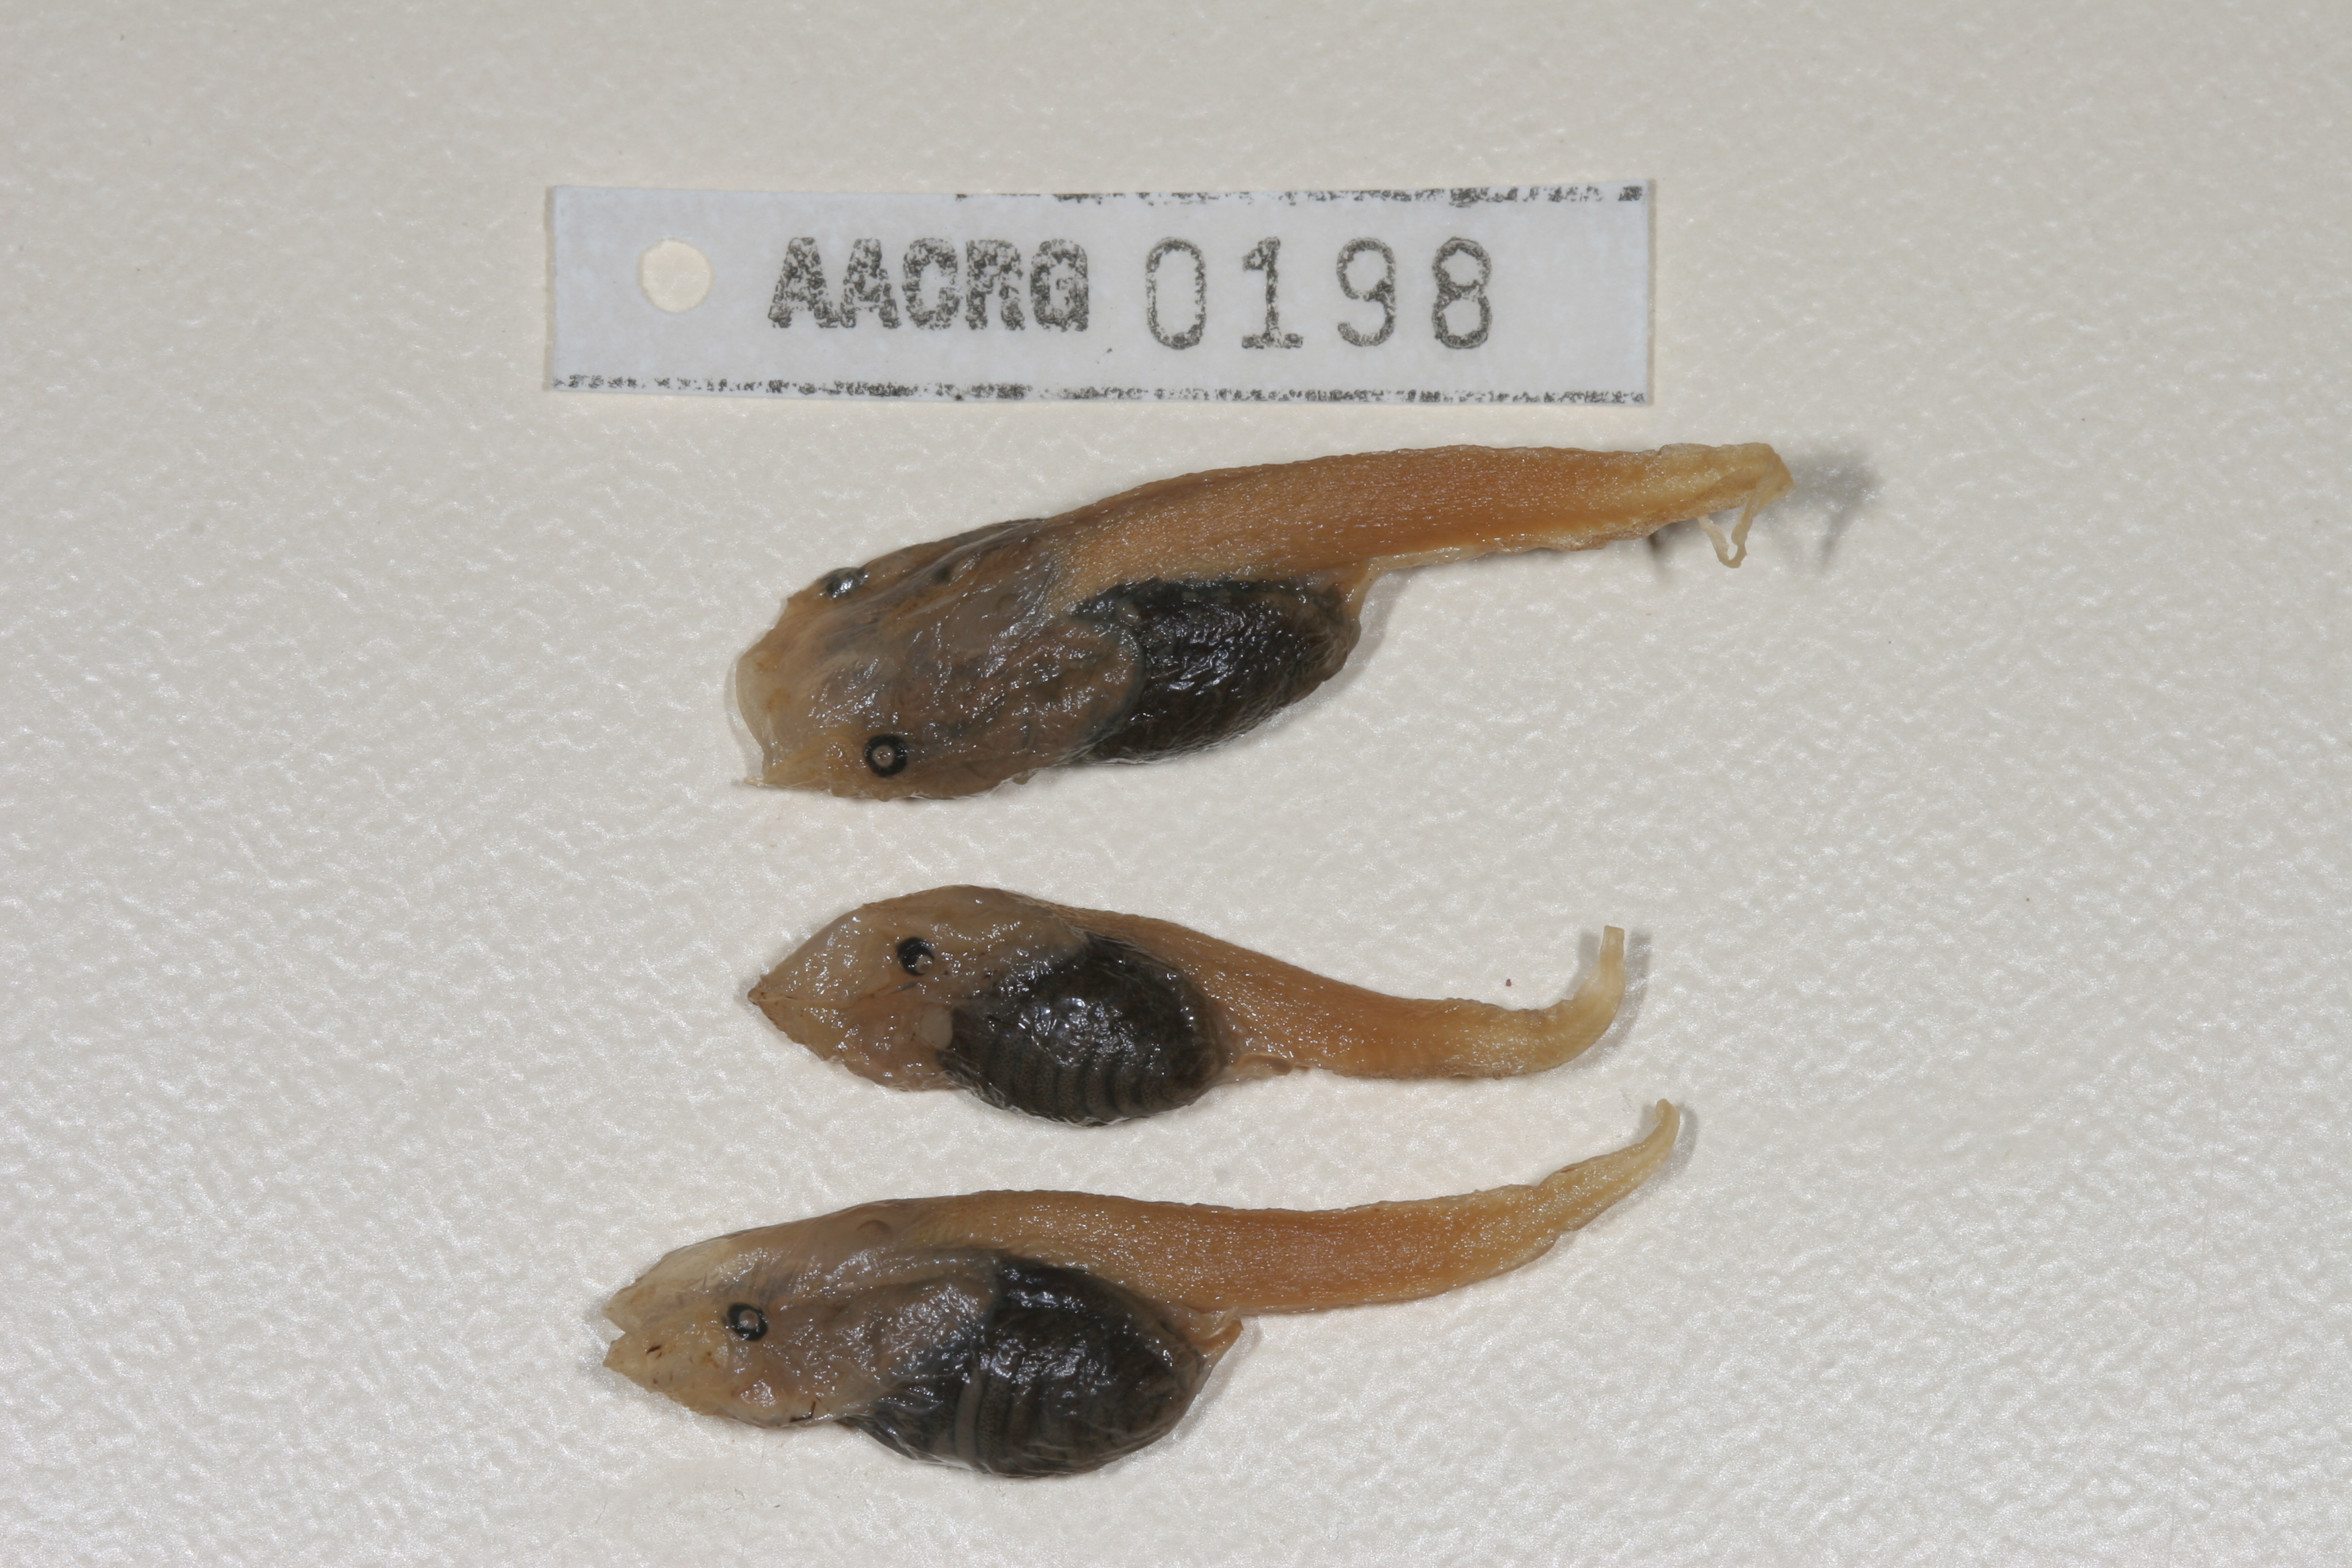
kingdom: Animalia
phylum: Chordata
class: Amphibia
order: Anura
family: Pipidae
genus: Xenopus
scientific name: Xenopus muelleri
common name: Muller's clawed frog
